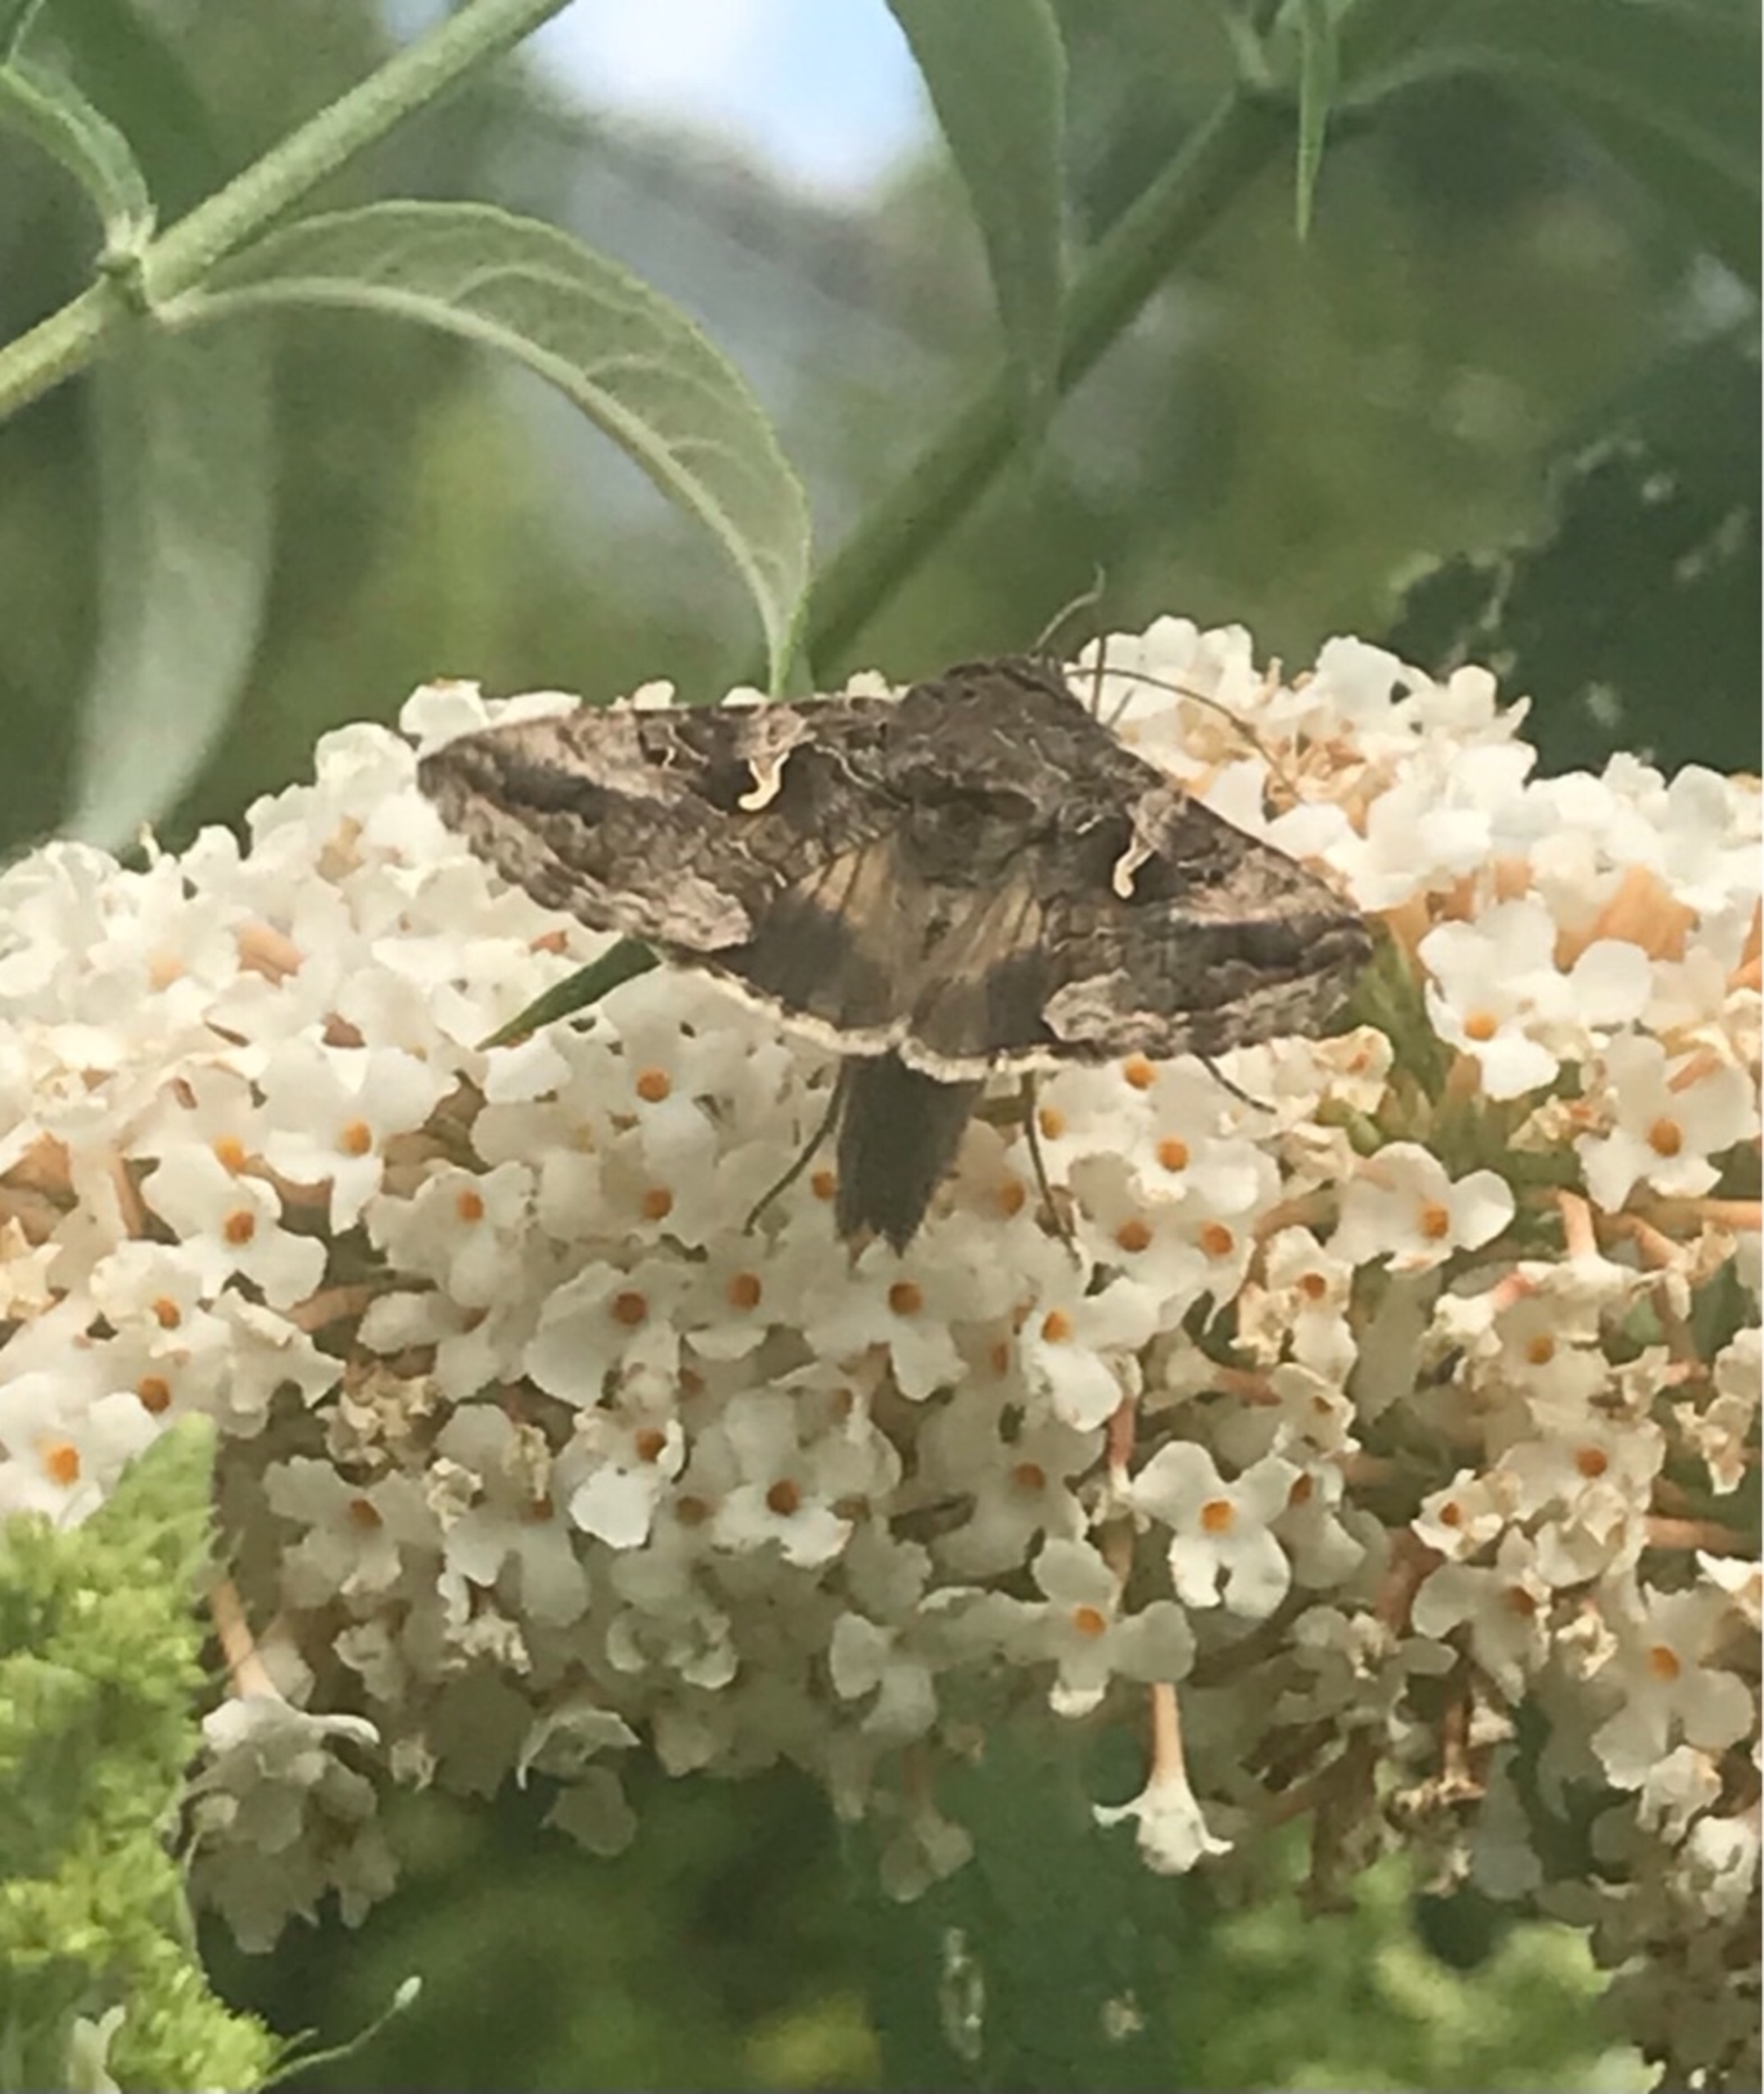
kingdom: Animalia
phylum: Arthropoda
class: Insecta
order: Lepidoptera
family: Noctuidae
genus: Autographa
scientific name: Autographa gamma
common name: Gammaugle
